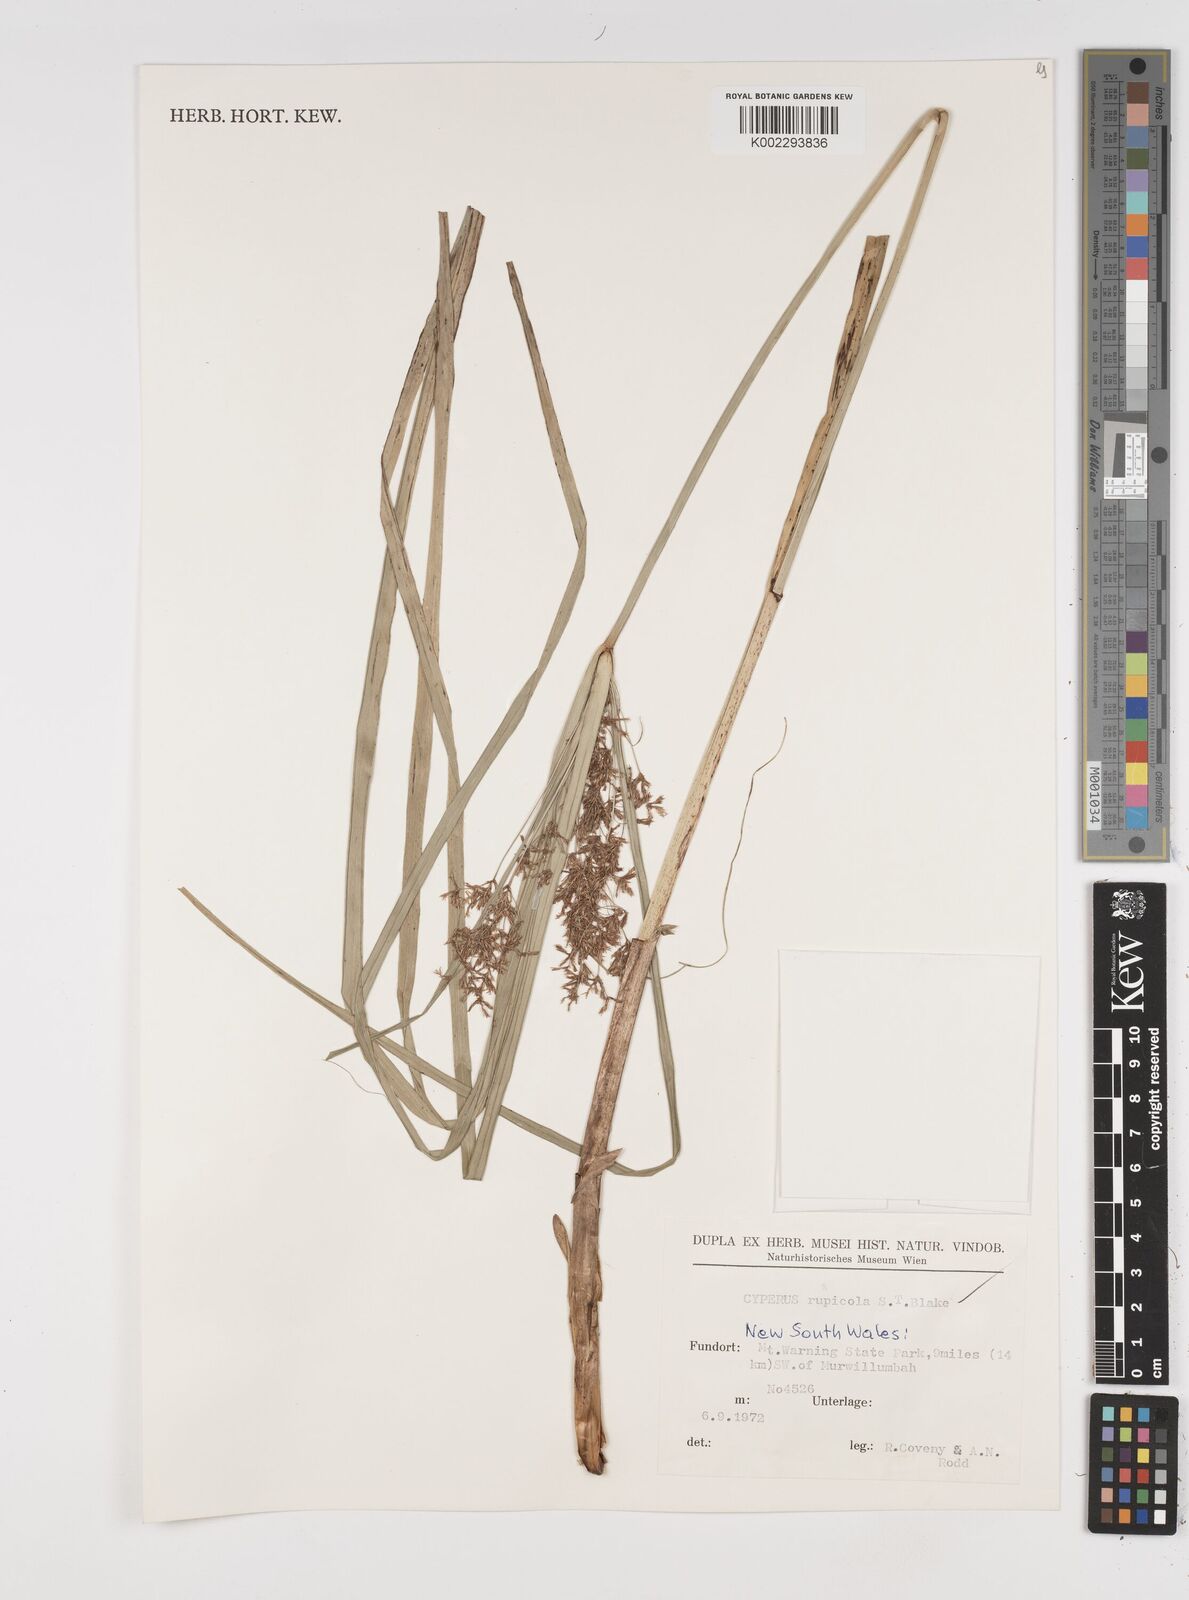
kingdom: Plantae
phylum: Tracheophyta
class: Liliopsida
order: Poales
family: Cyperaceae
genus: Cyperus
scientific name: Cyperus rupicola
